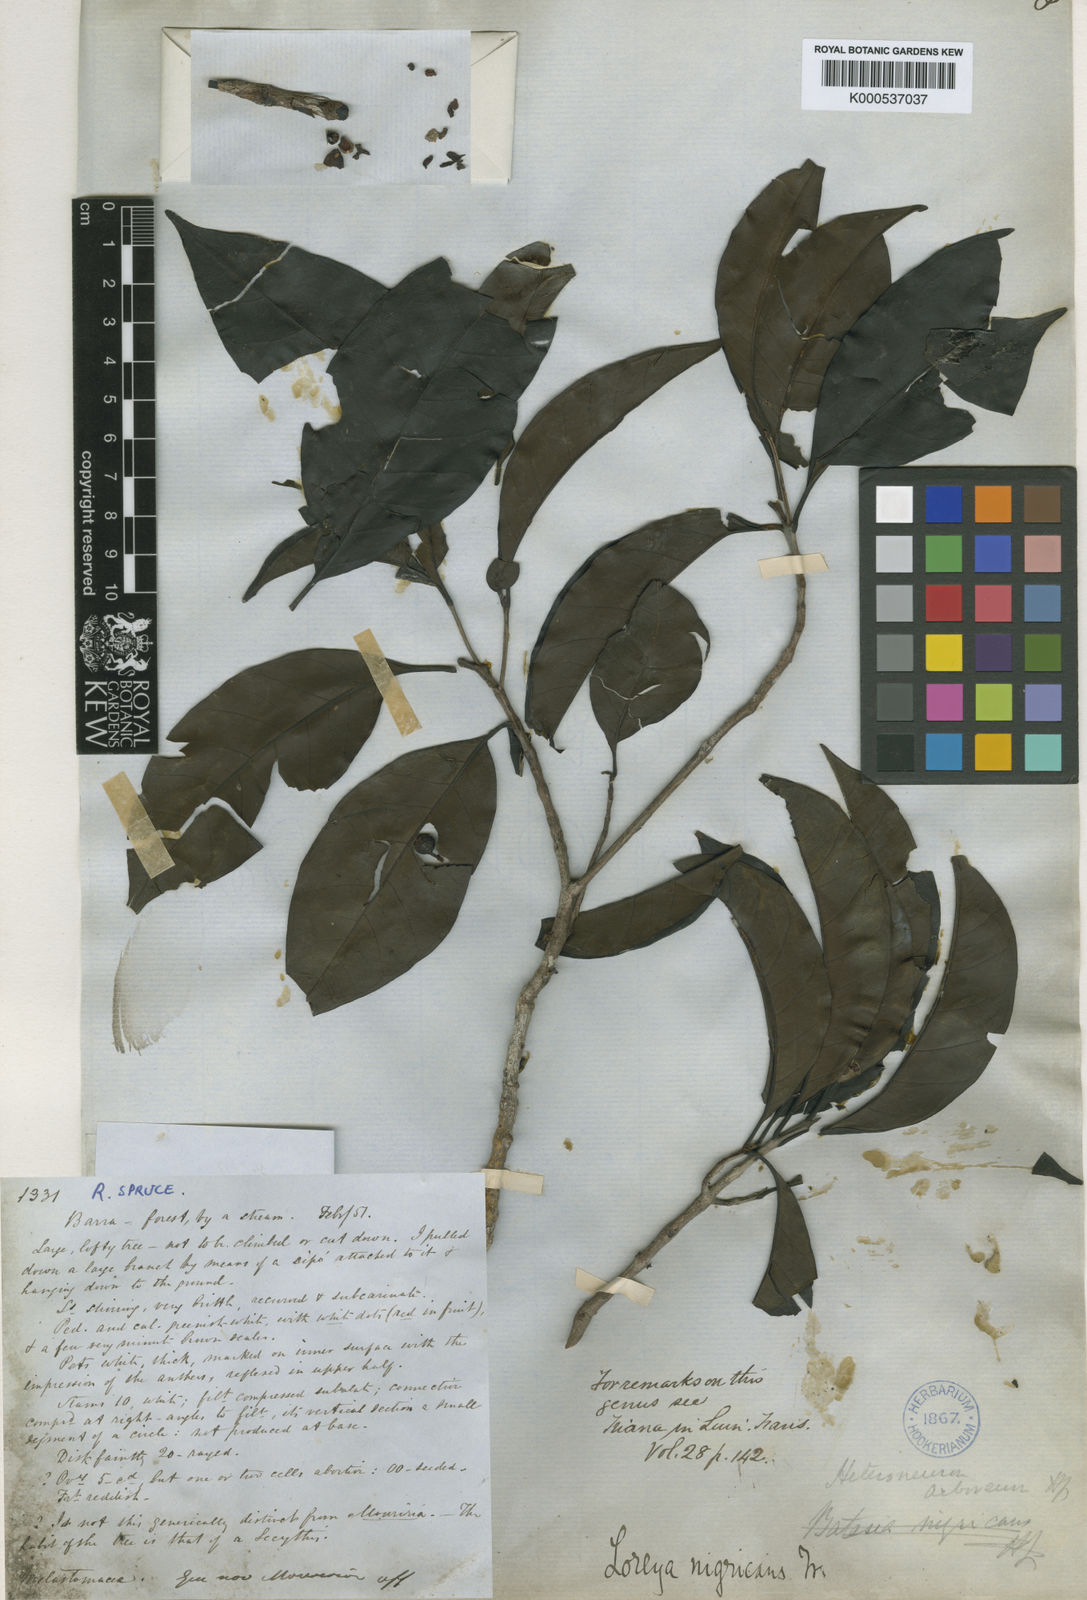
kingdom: Plantae
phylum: Tracheophyta
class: Magnoliopsida
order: Myrtales
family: Melastomataceae
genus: Bellucia
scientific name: Bellucia nigricans
